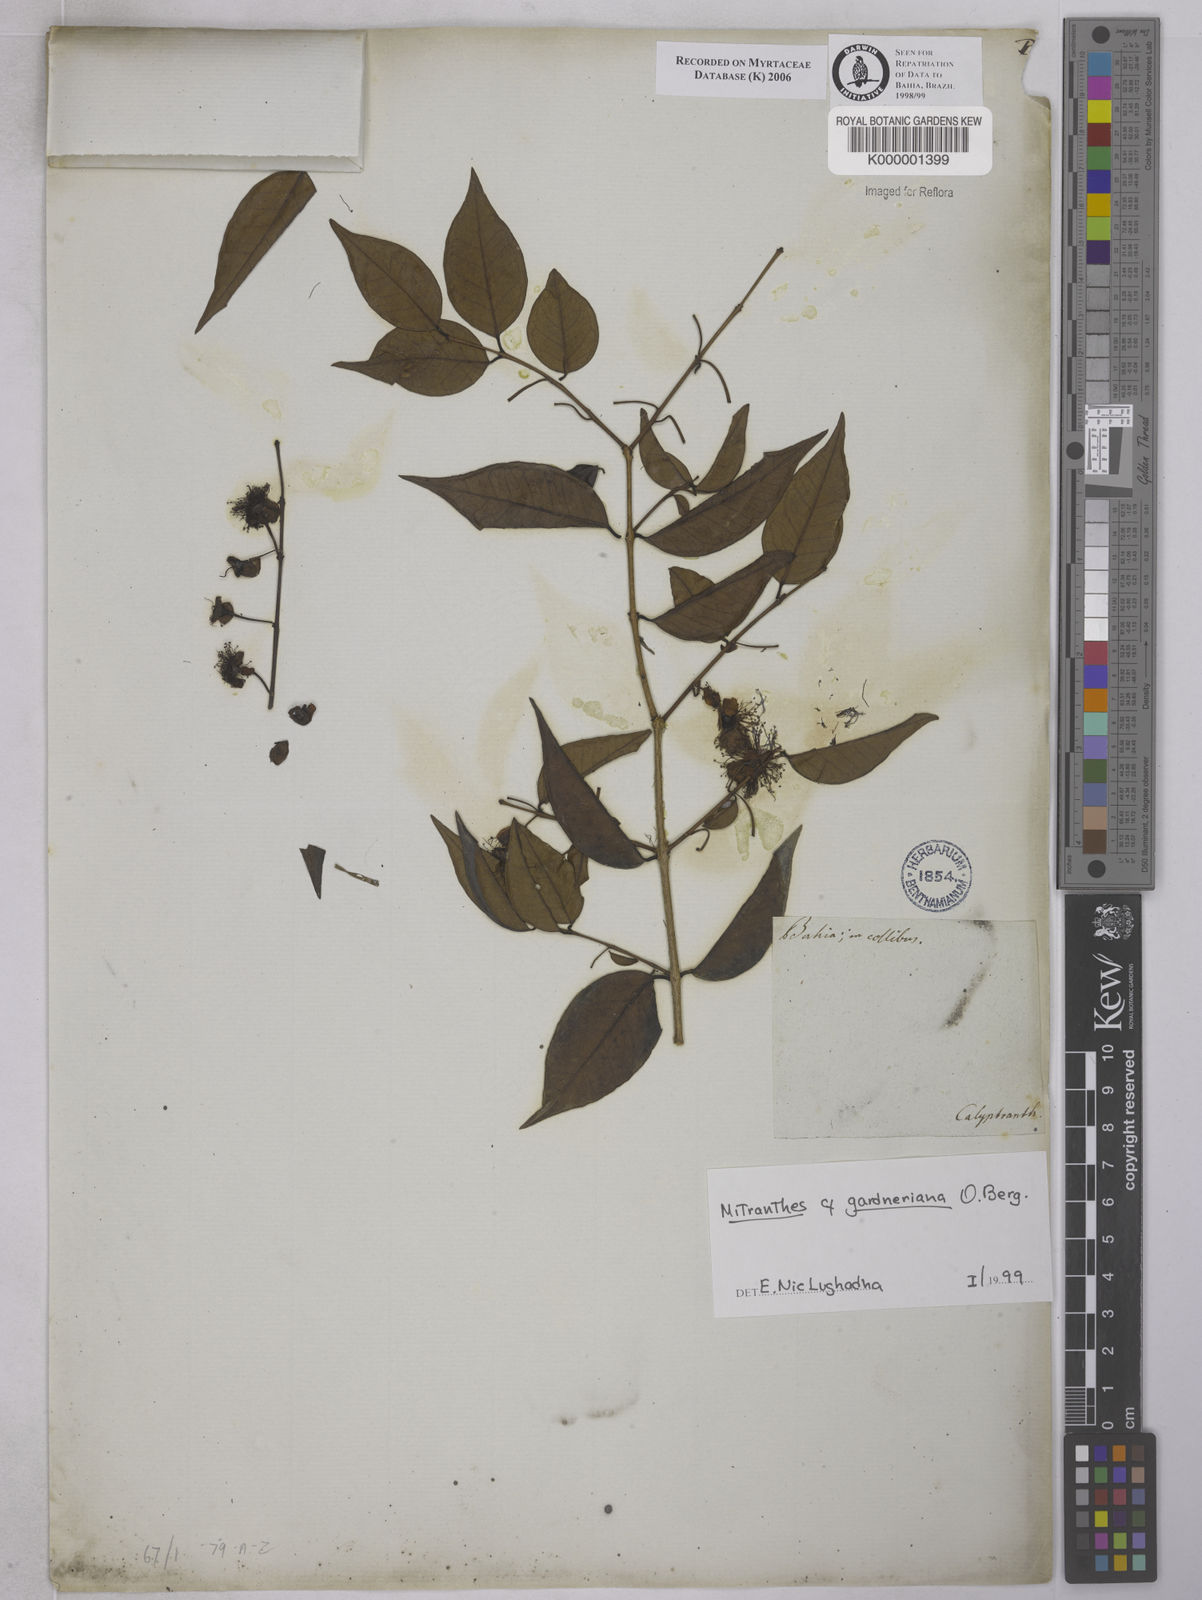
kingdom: Plantae
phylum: Tracheophyta
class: Magnoliopsida
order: Myrtales
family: Myrtaceae
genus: Psidium
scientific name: Psidium oligospermum
